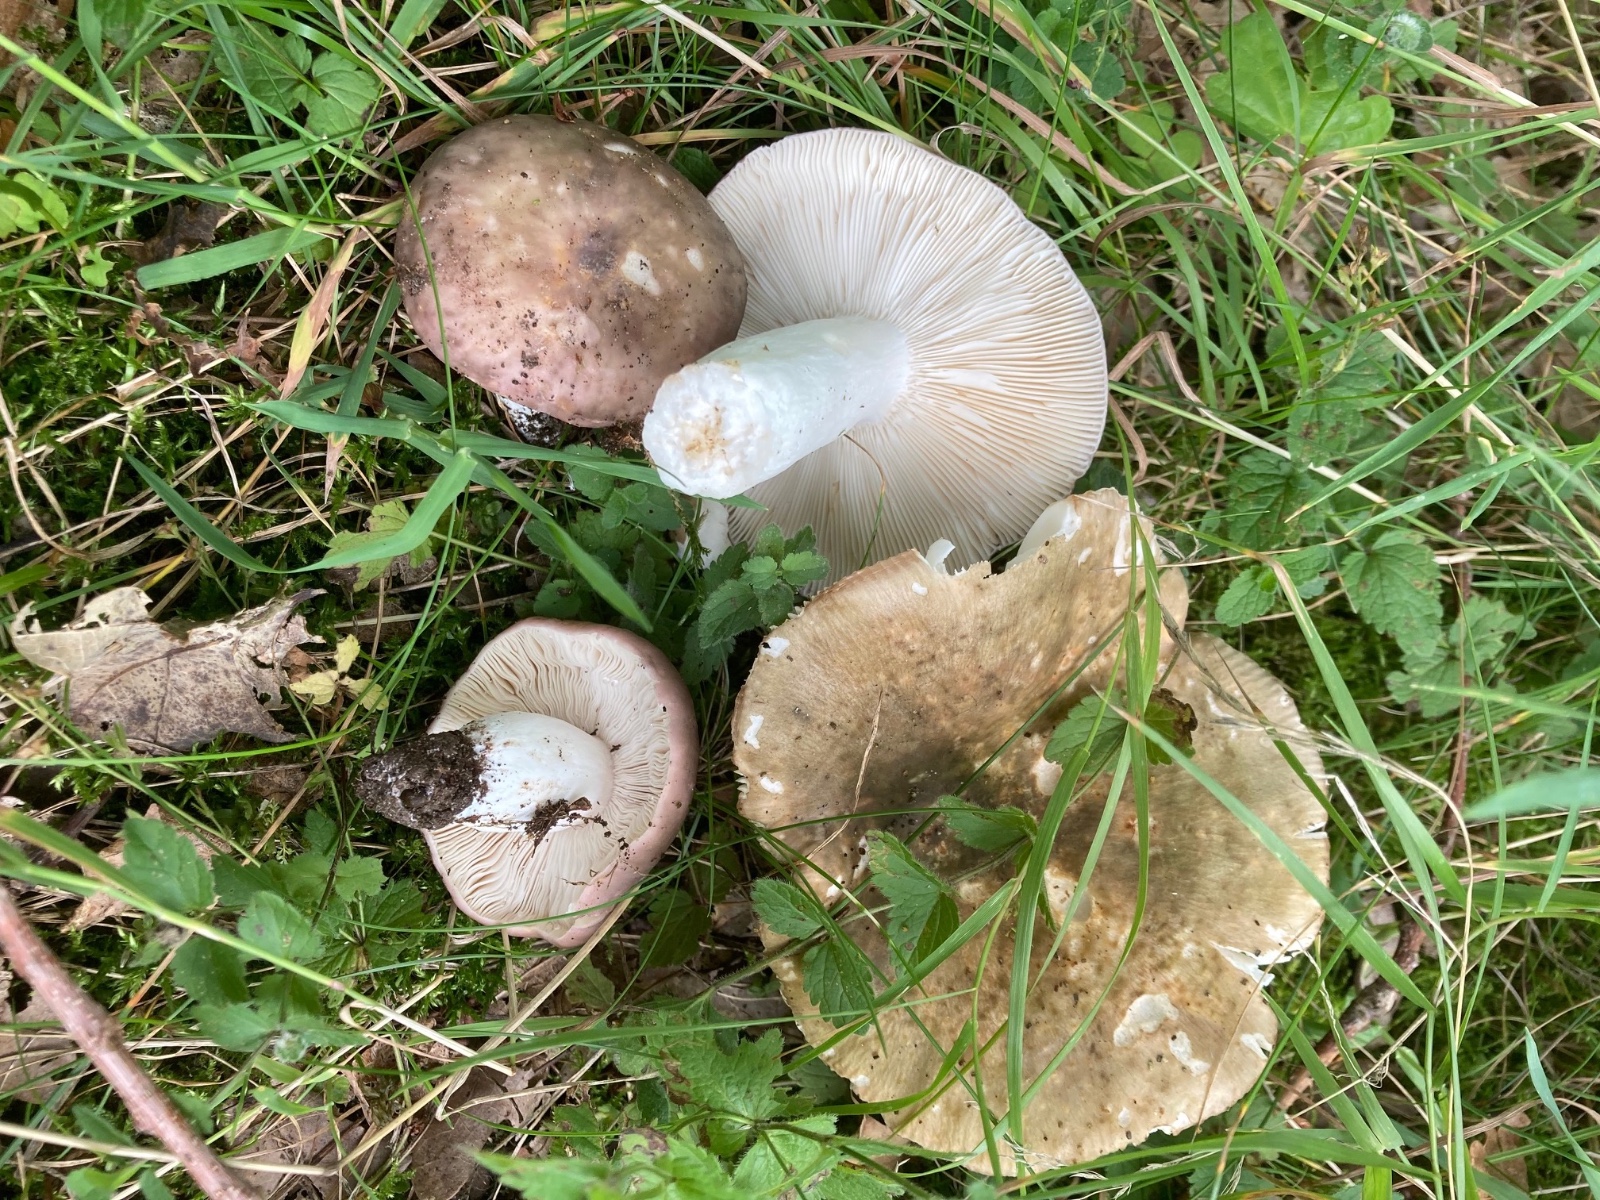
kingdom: Fungi
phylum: Basidiomycota
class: Agaricomycetes
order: Russulales
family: Russulaceae
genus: Russula
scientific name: Russula cyanoxantha
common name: broget skørhat
